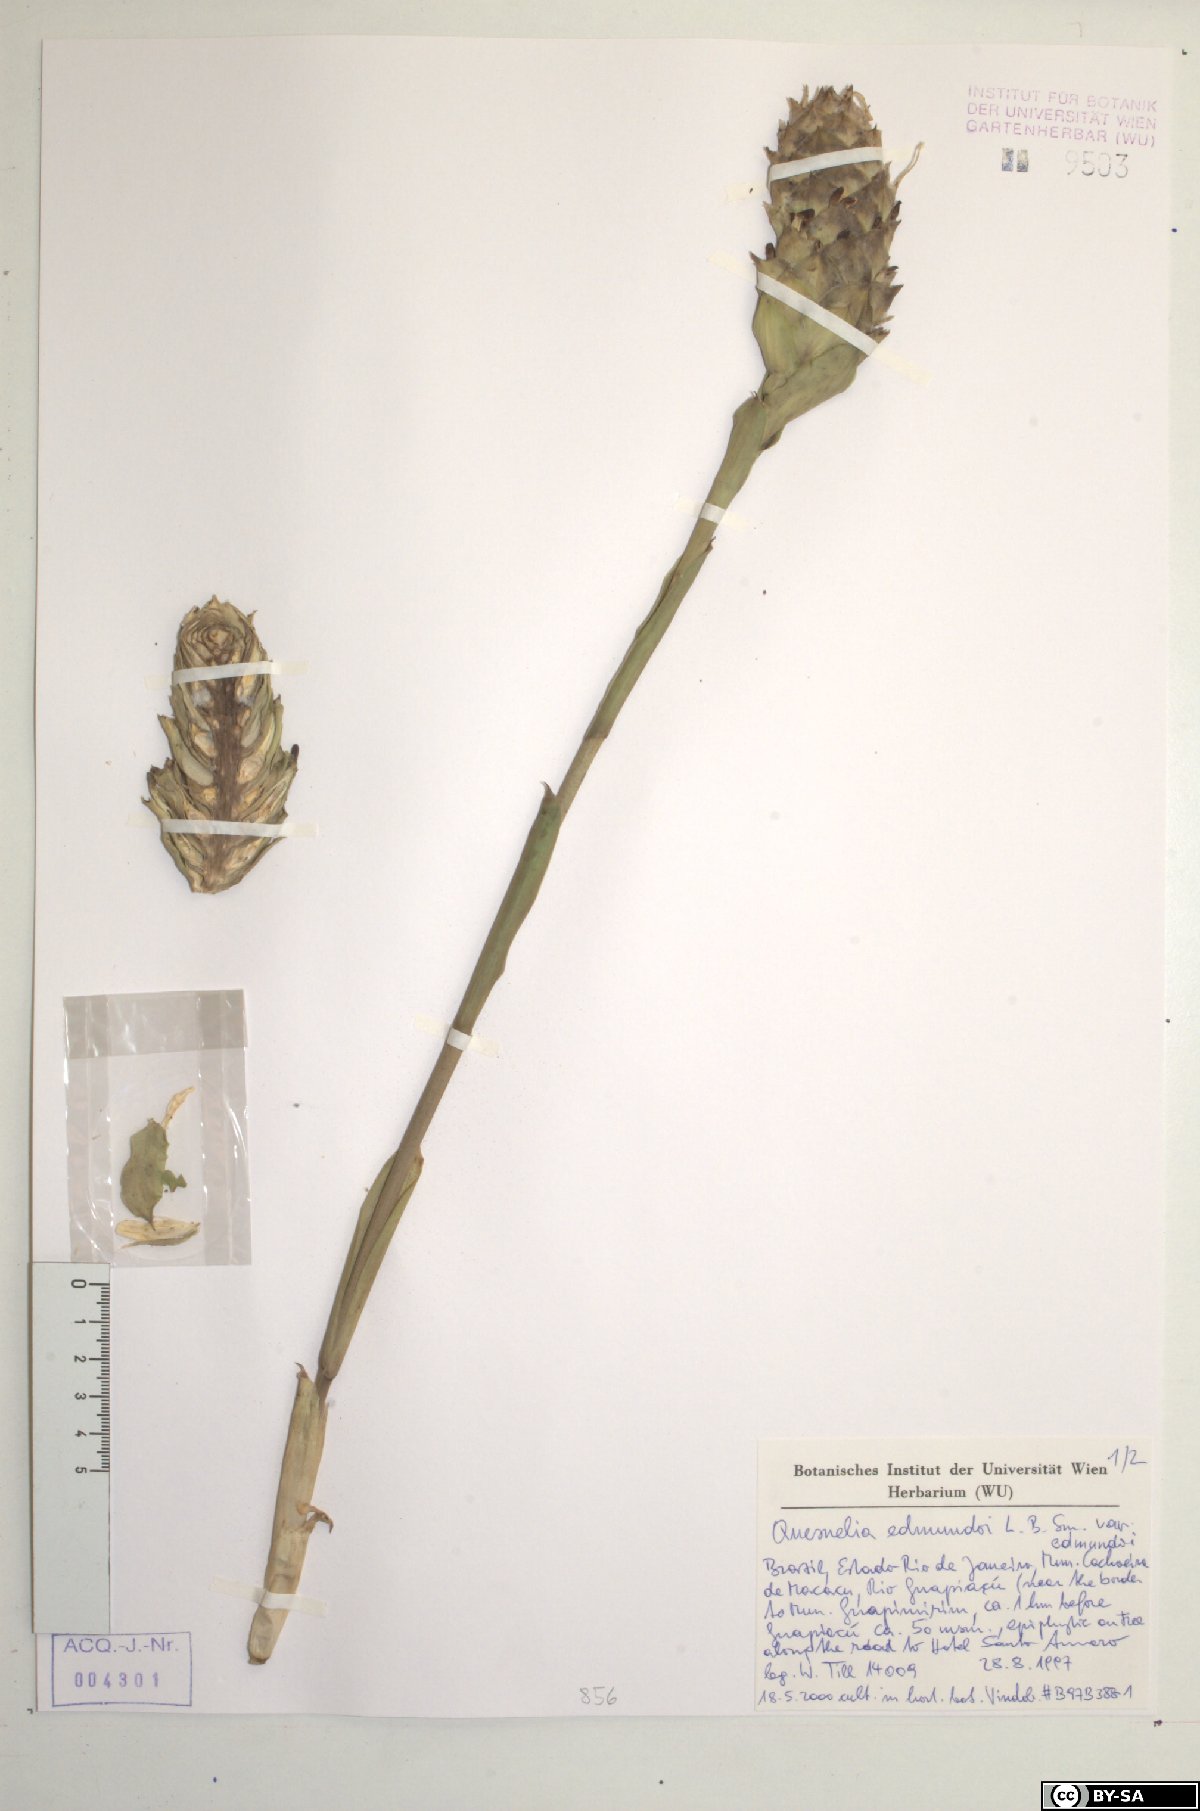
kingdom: Plantae
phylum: Tracheophyta
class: Liliopsida
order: Poales
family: Bromeliaceae
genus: Quesnelia
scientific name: Quesnelia edmundoi
